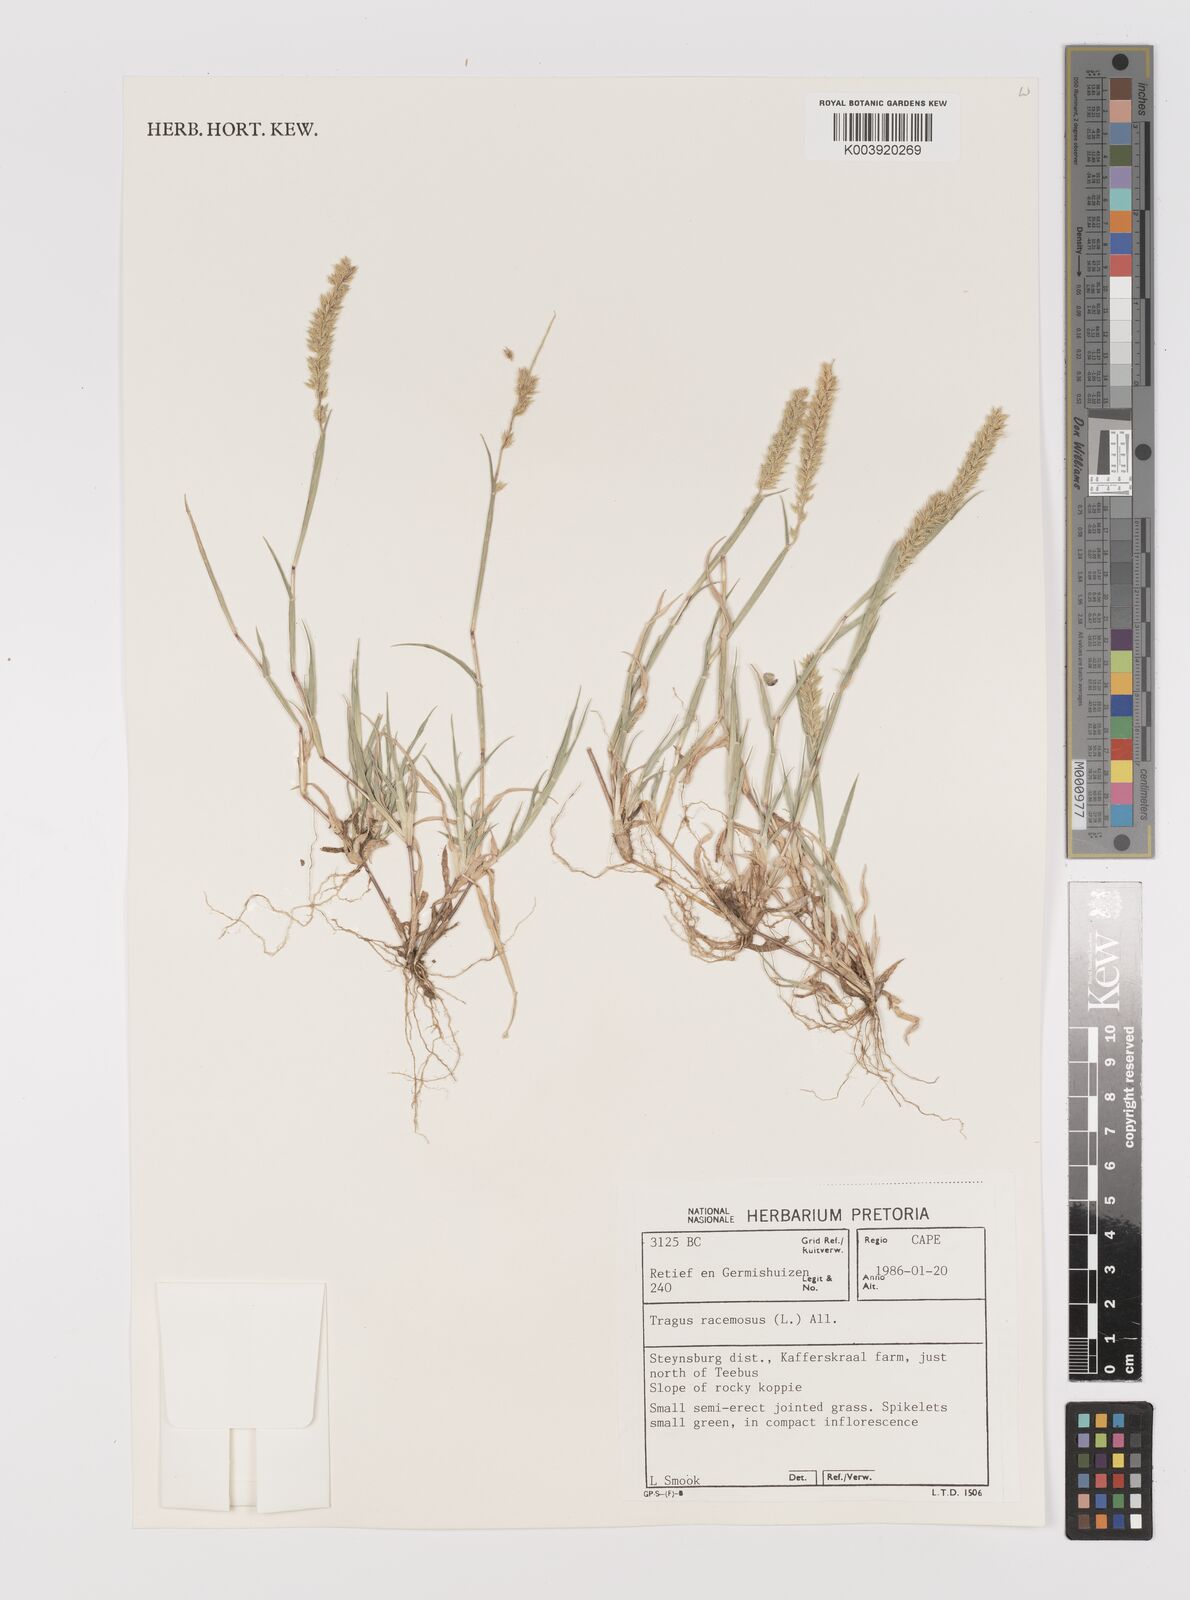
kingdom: Plantae
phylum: Tracheophyta
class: Liliopsida
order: Poales
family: Poaceae
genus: Tragus
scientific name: Tragus racemosus
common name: European bur-grass
